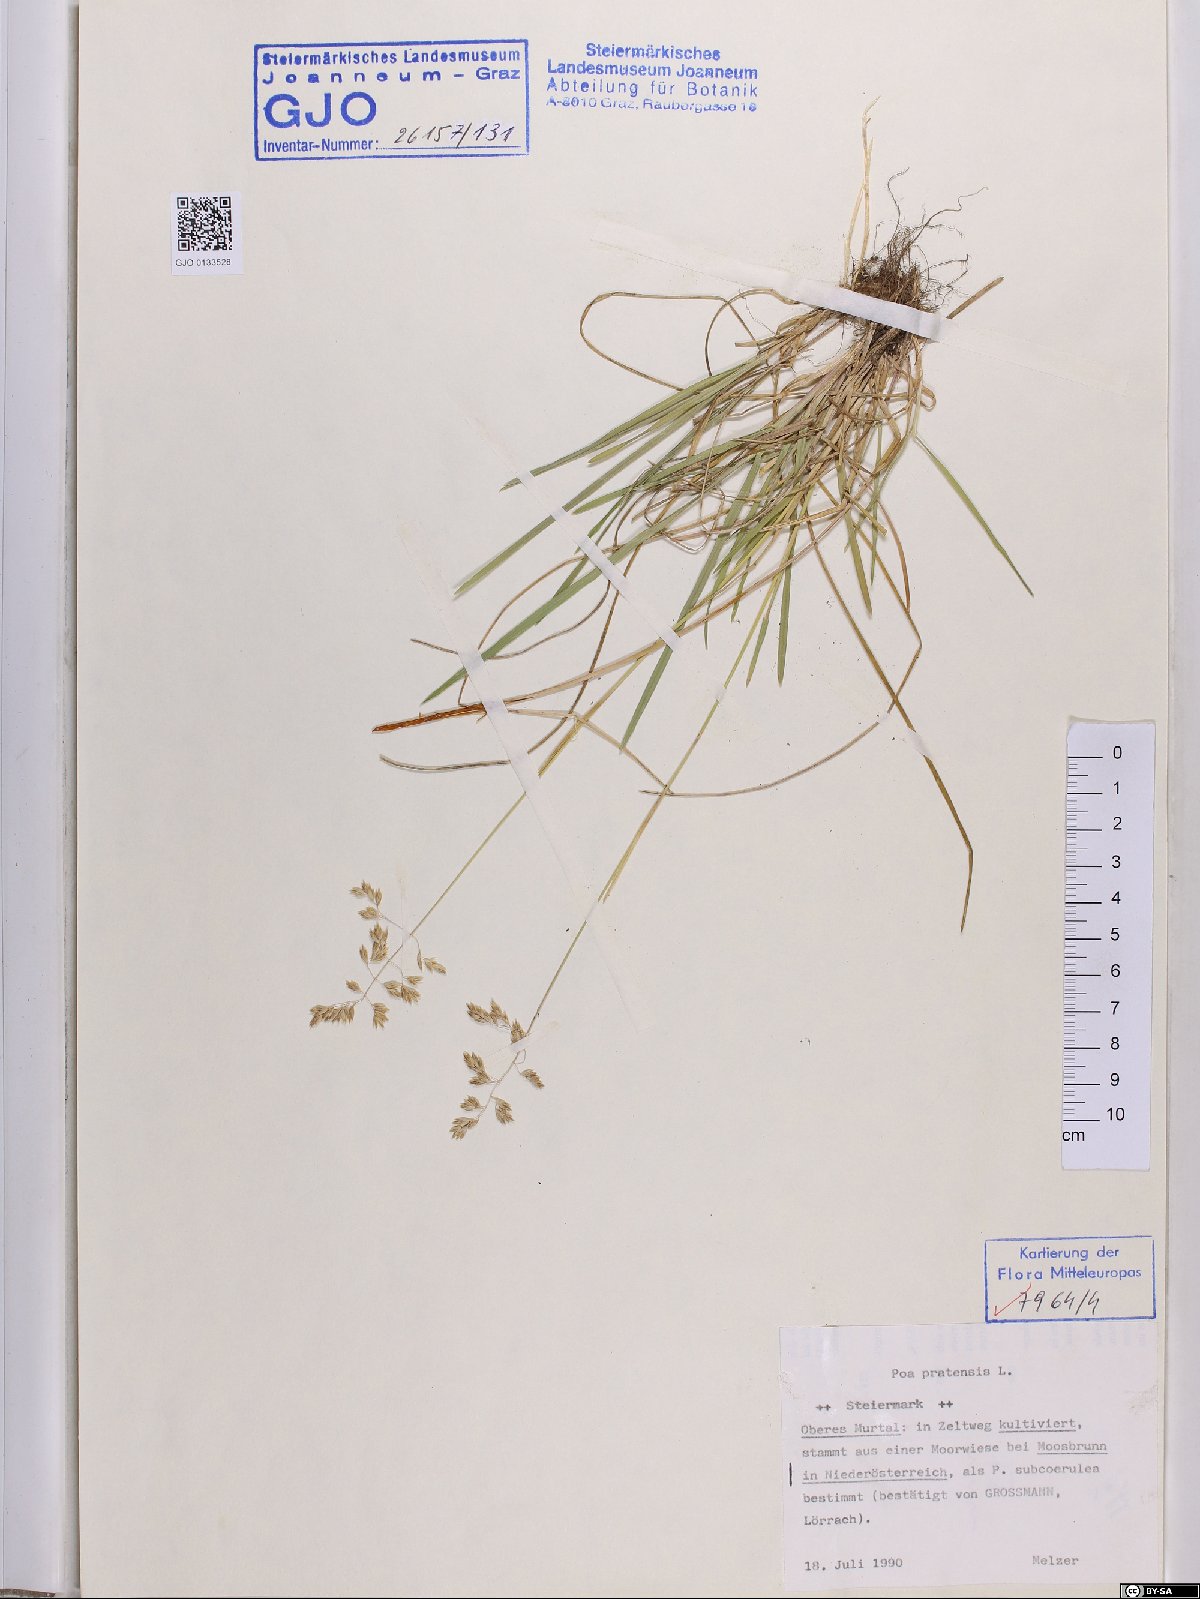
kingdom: Plantae
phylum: Tracheophyta
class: Liliopsida
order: Poales
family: Poaceae
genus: Poa
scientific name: Poa pratensis
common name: Kentucky bluegrass
